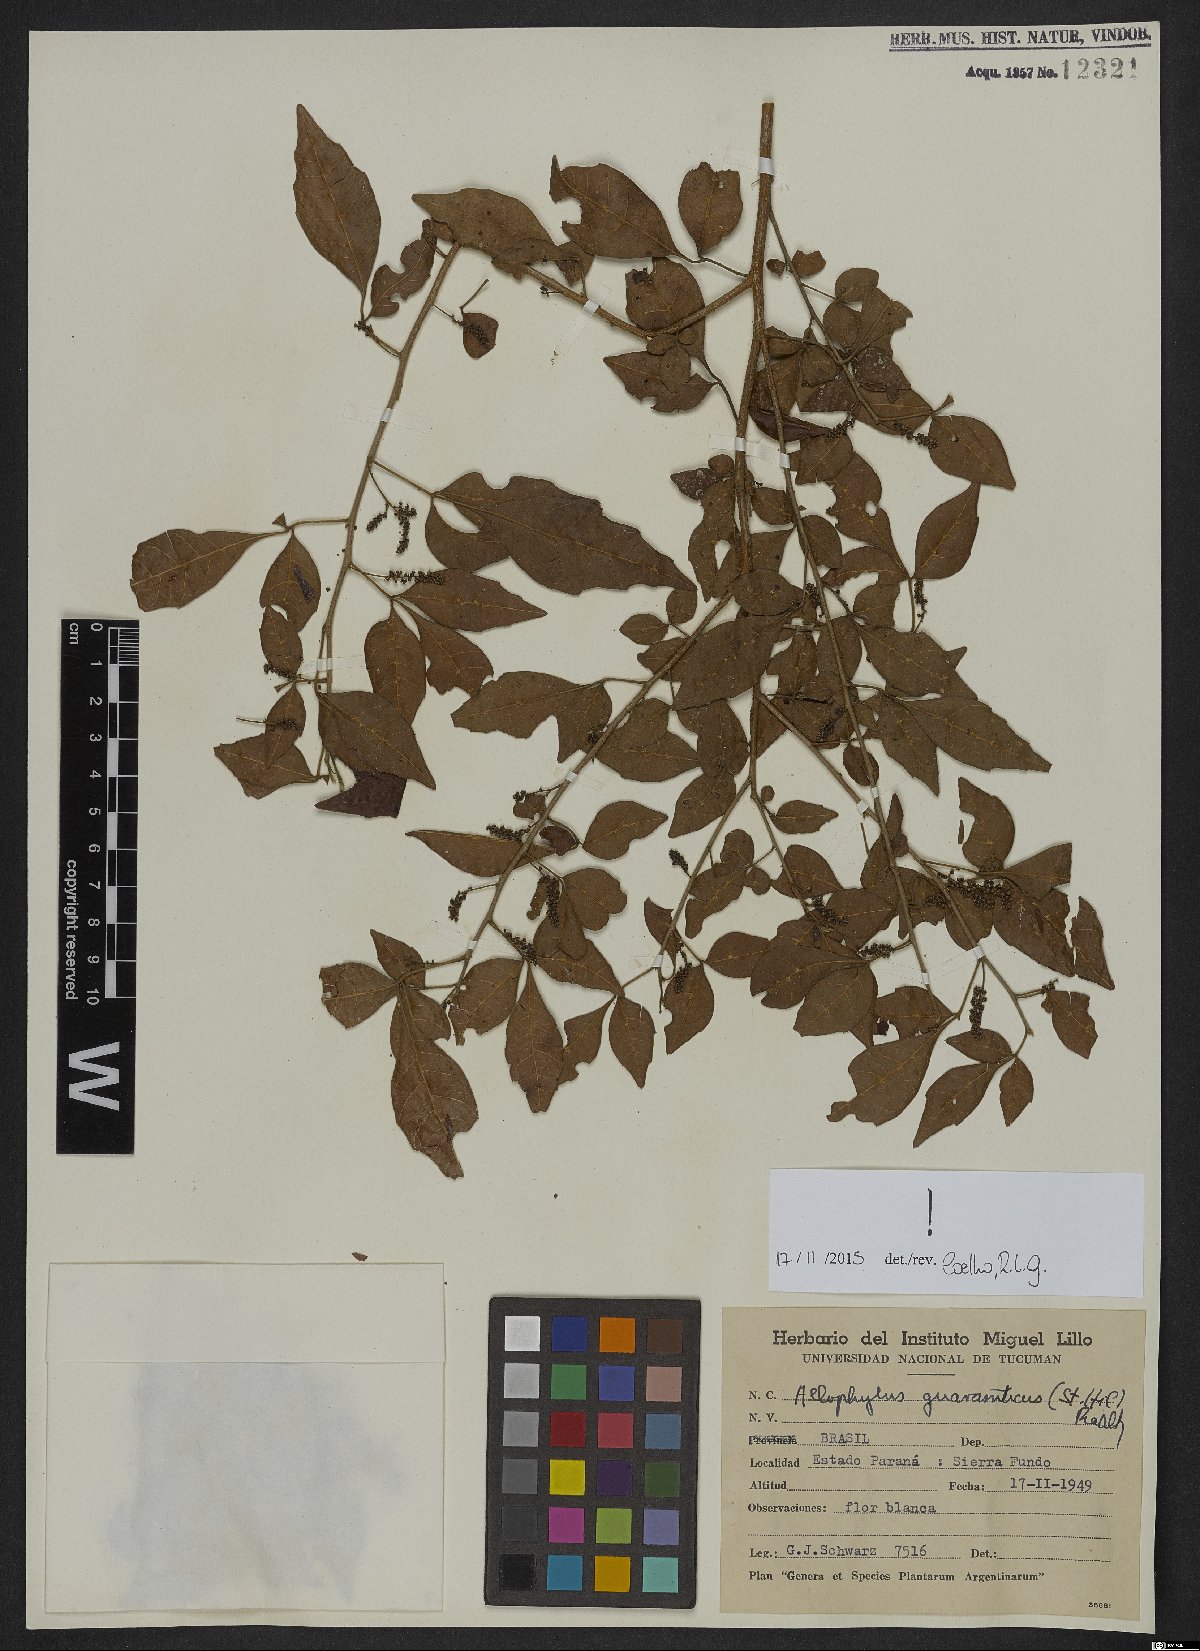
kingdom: Plantae
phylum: Tracheophyta
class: Magnoliopsida
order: Sapindales
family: Sapindaceae
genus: Allophylus
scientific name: Allophylus guaraniticus
